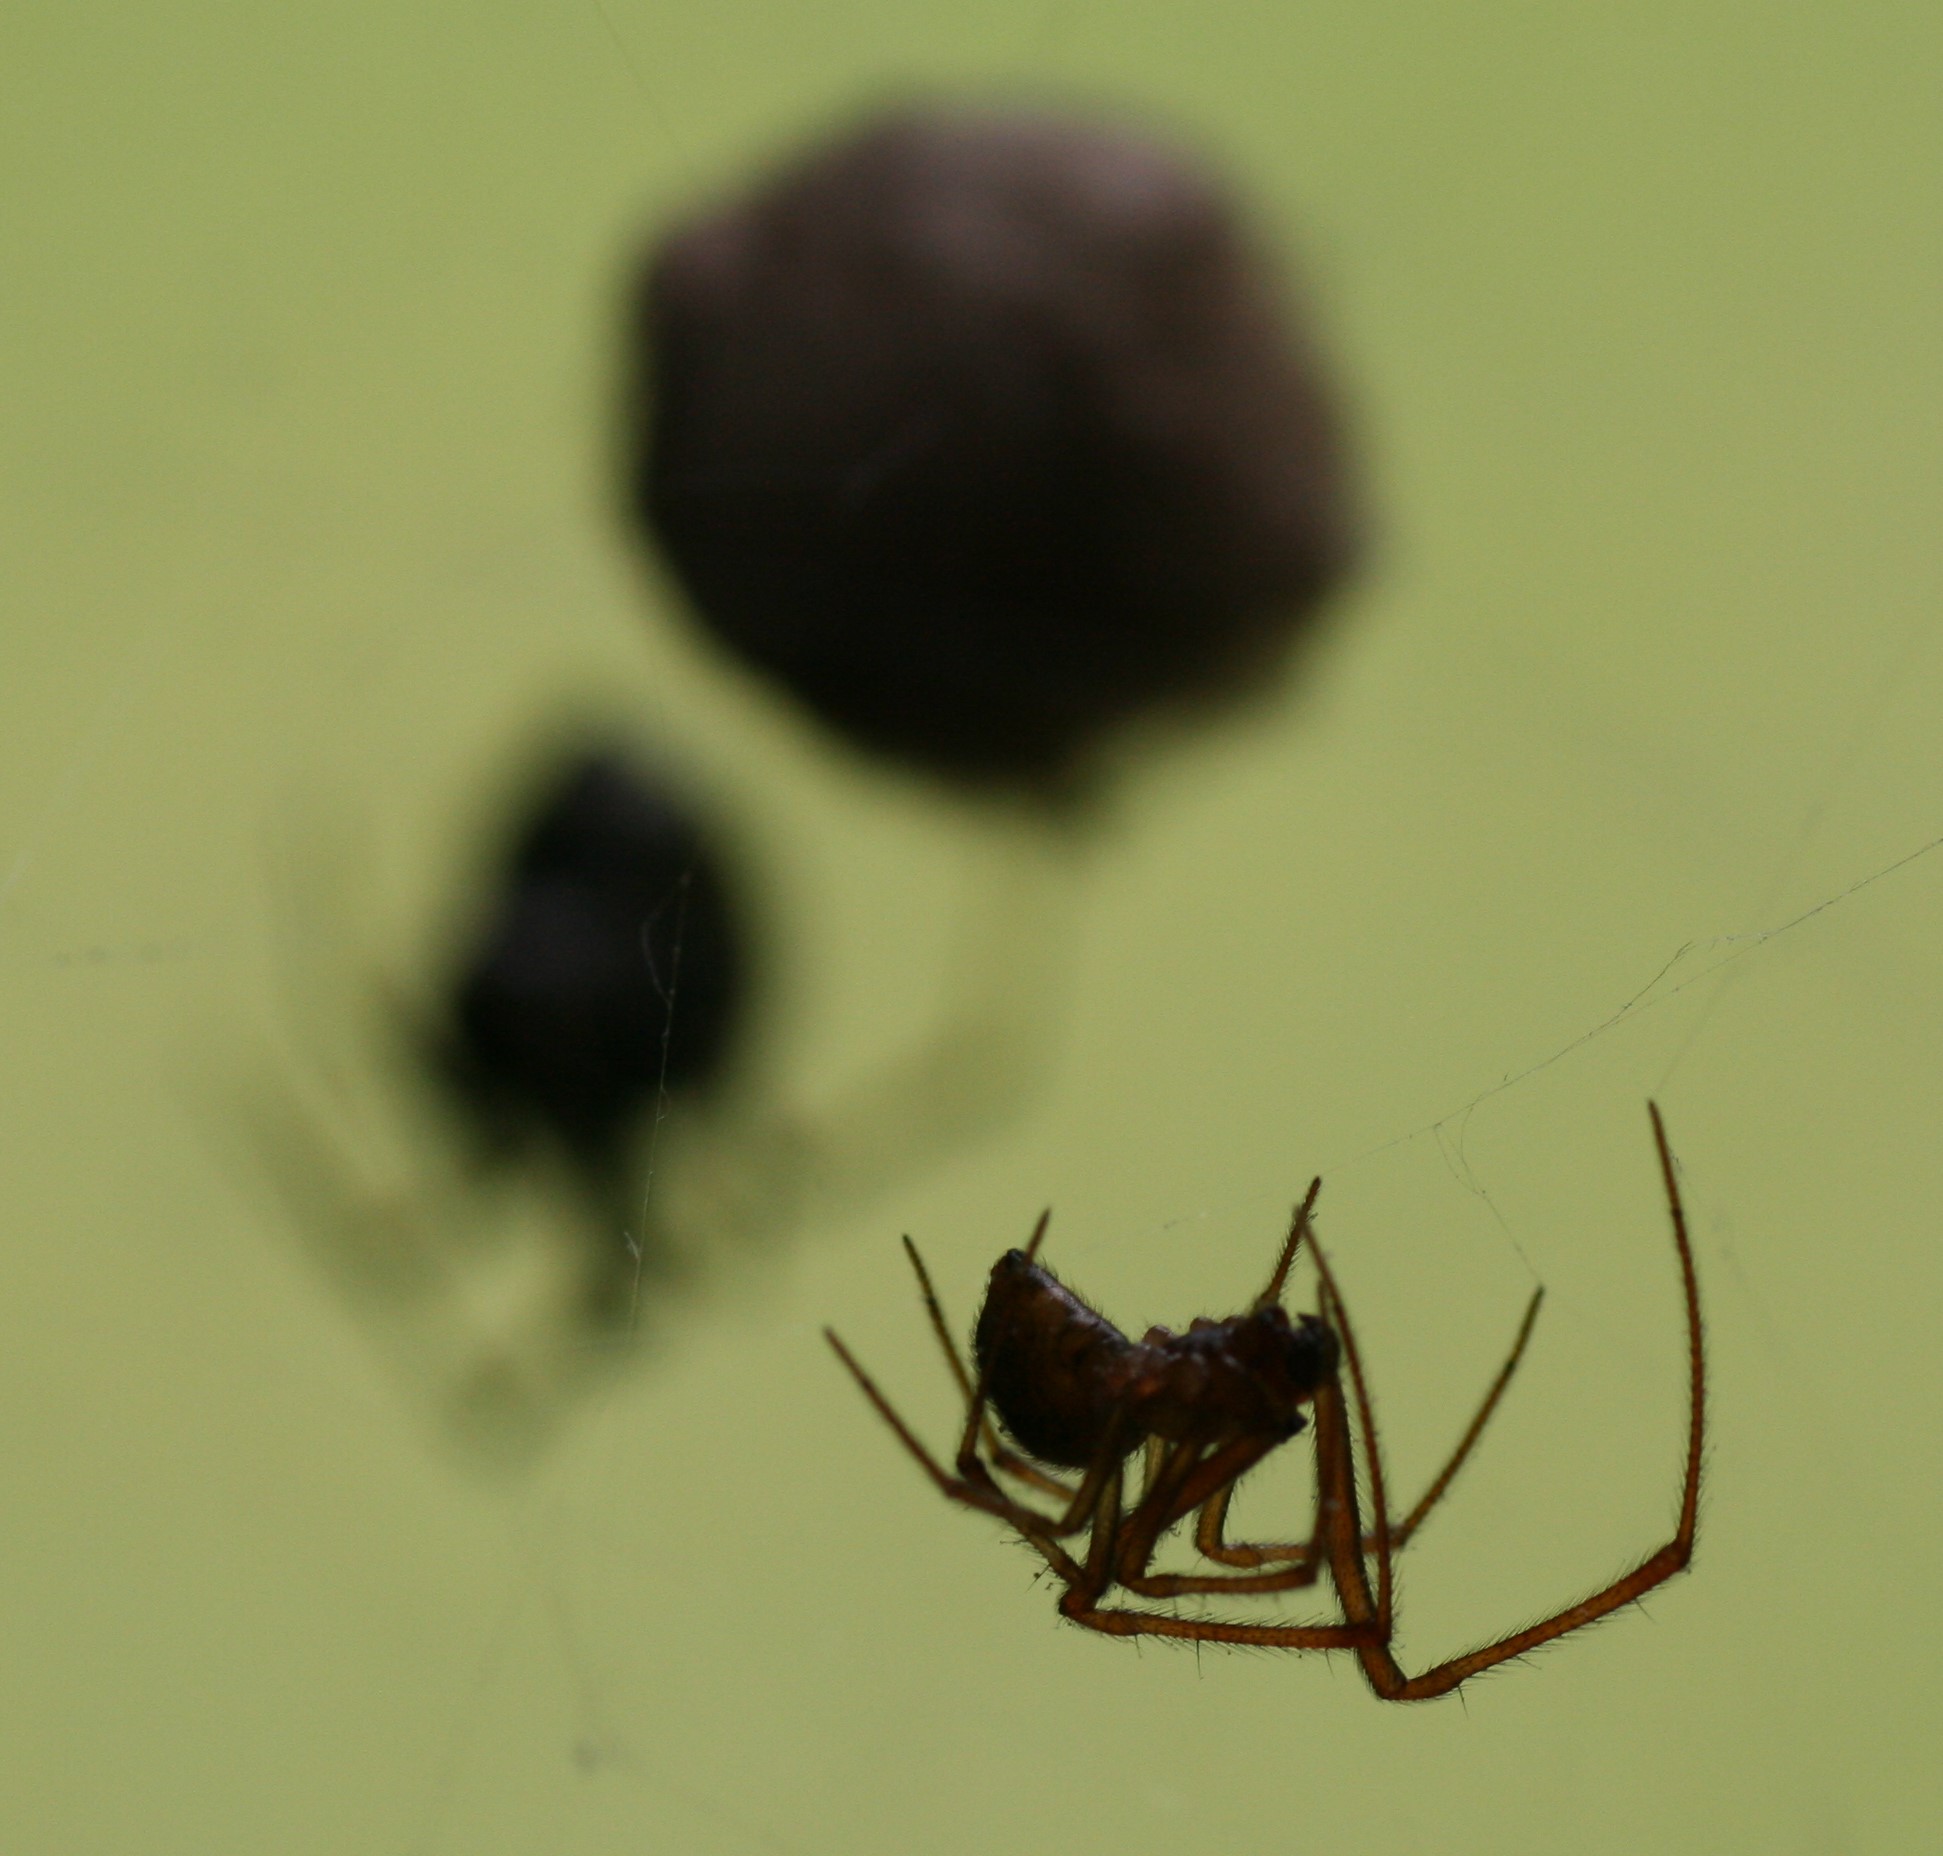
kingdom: Animalia
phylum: Arthropoda
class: Arachnida
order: Araneae
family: Theridiidae
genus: Parasteatoda
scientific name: Parasteatoda tepidariorum
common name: Væksthusspinder
